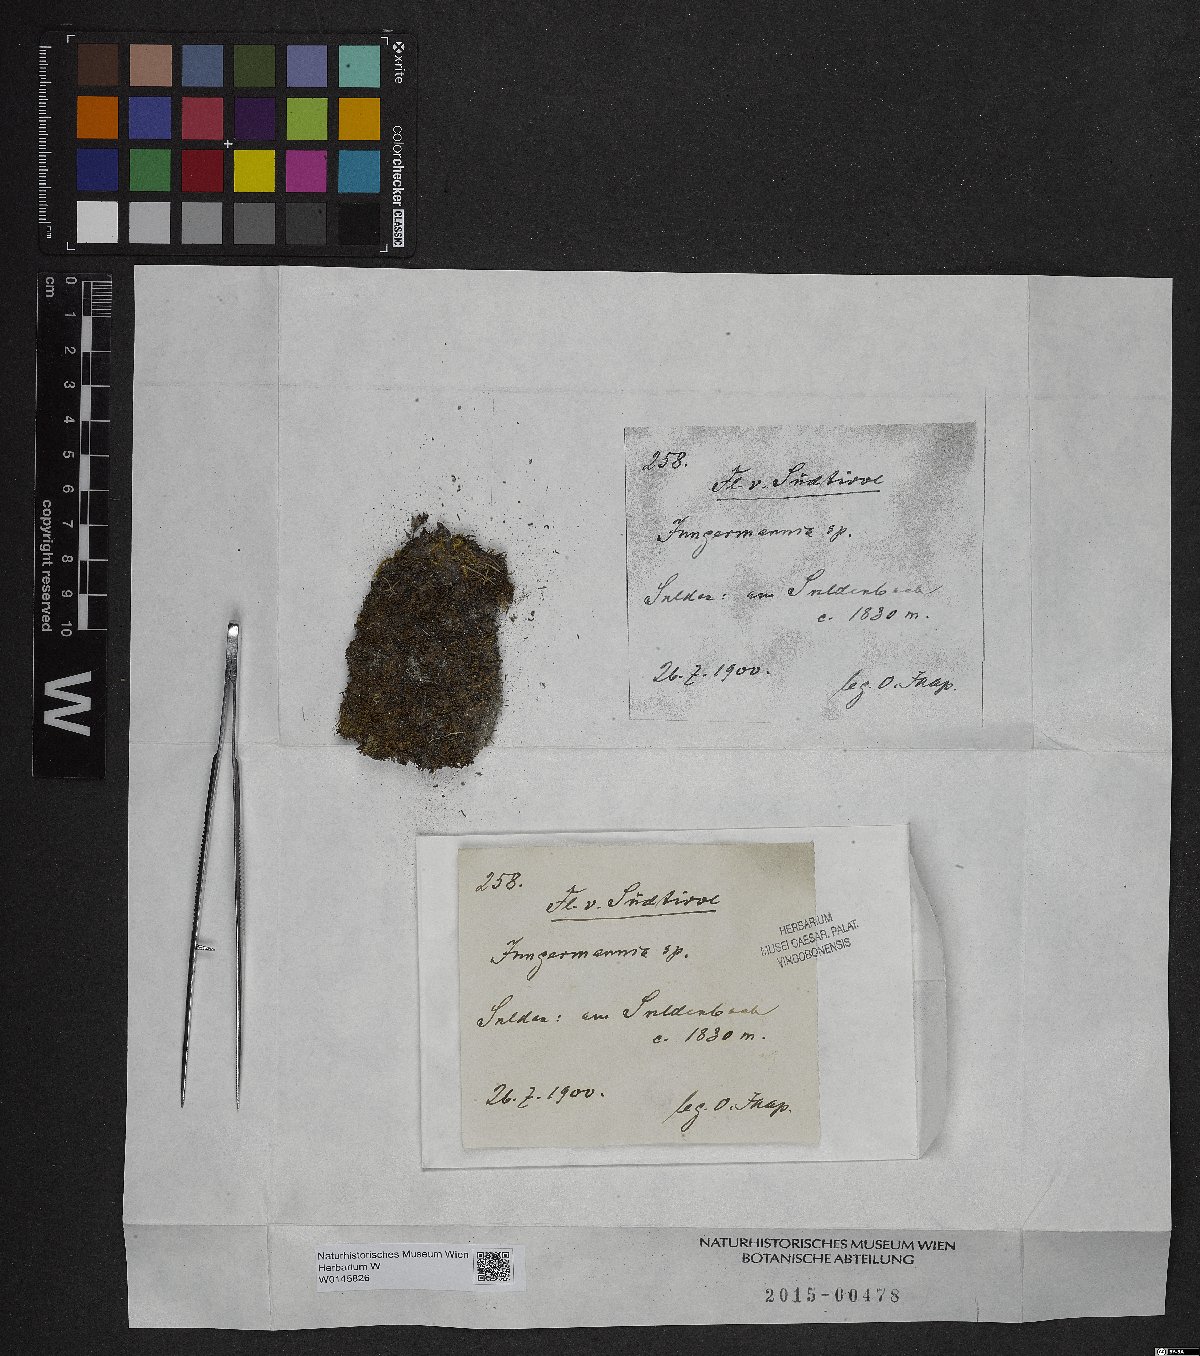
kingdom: Plantae
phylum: Marchantiophyta
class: Jungermanniopsida
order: Jungermanniales
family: Jungermanniaceae
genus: Jungermannia
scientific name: Jungermannia
